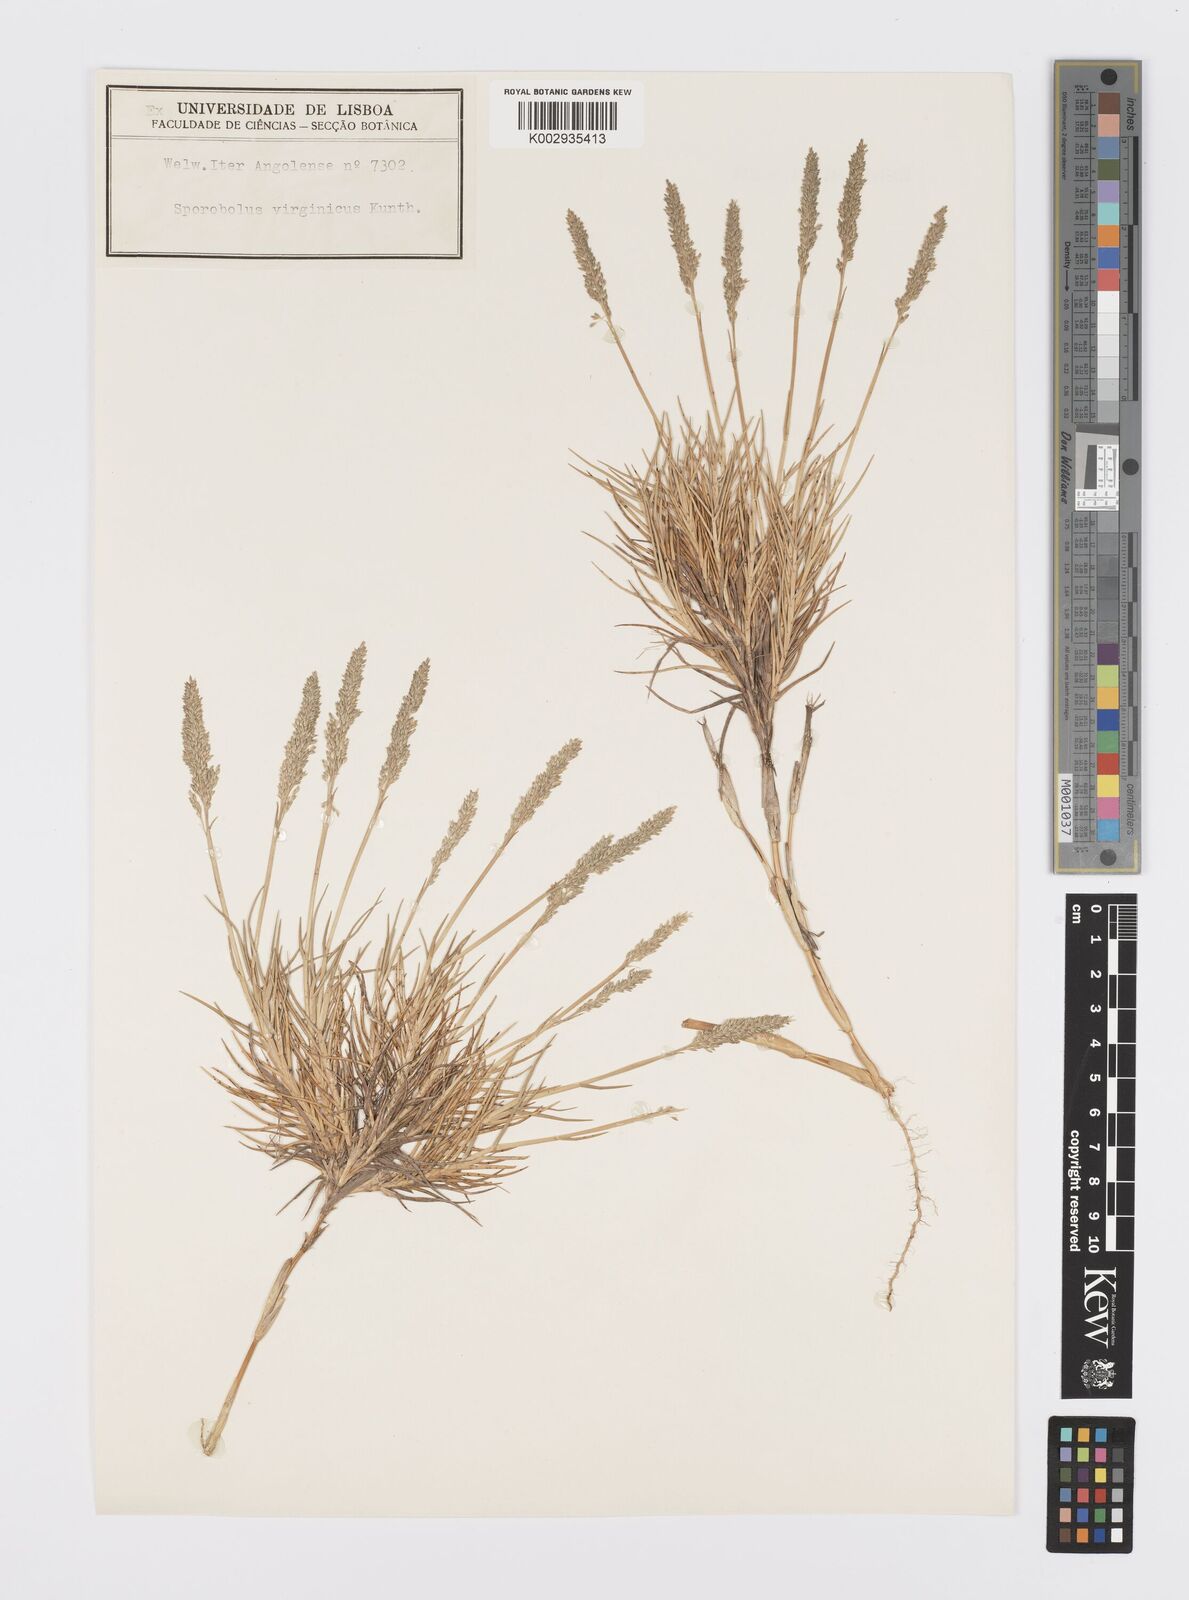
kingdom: Plantae
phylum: Tracheophyta
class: Liliopsida
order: Poales
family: Poaceae
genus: Sporobolus
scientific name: Sporobolus virginicus
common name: Beach dropseed
